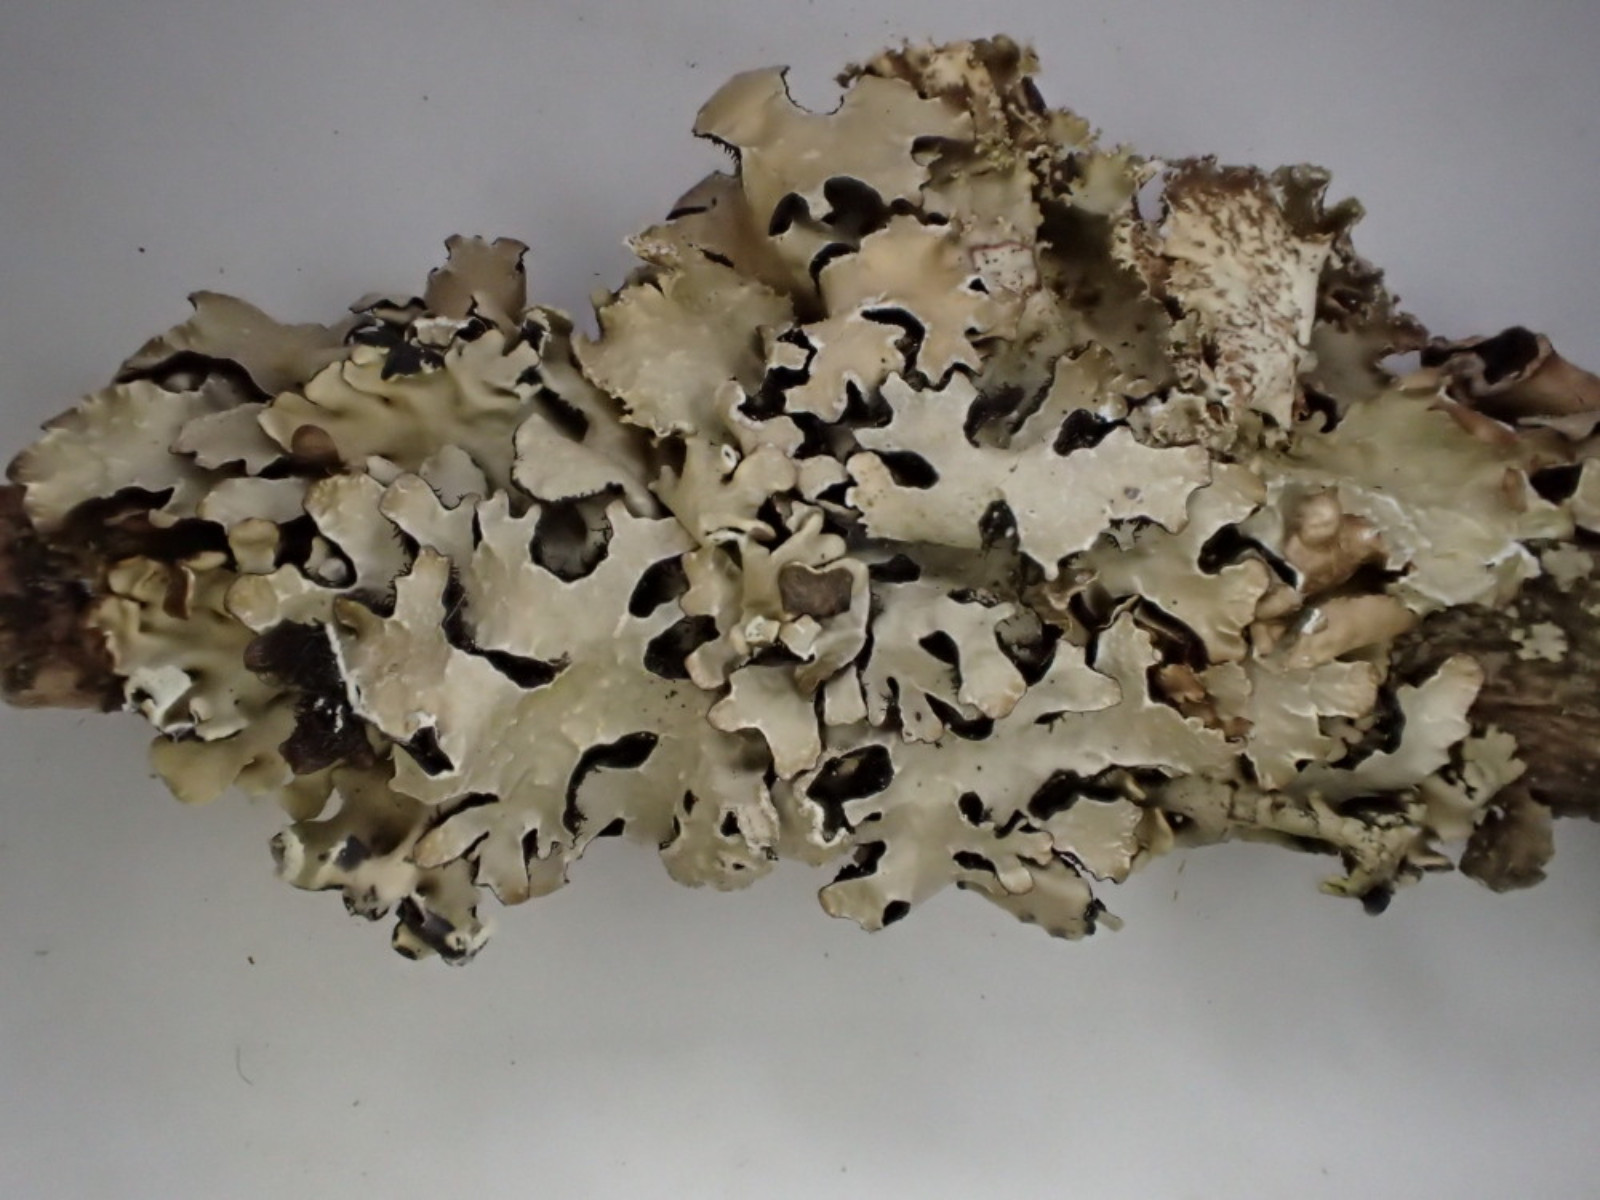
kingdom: Fungi
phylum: Ascomycota
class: Lecanoromycetes
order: Lecanorales
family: Parmeliaceae
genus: Parmelia
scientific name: Parmelia saxatilis
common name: farve-skållav
